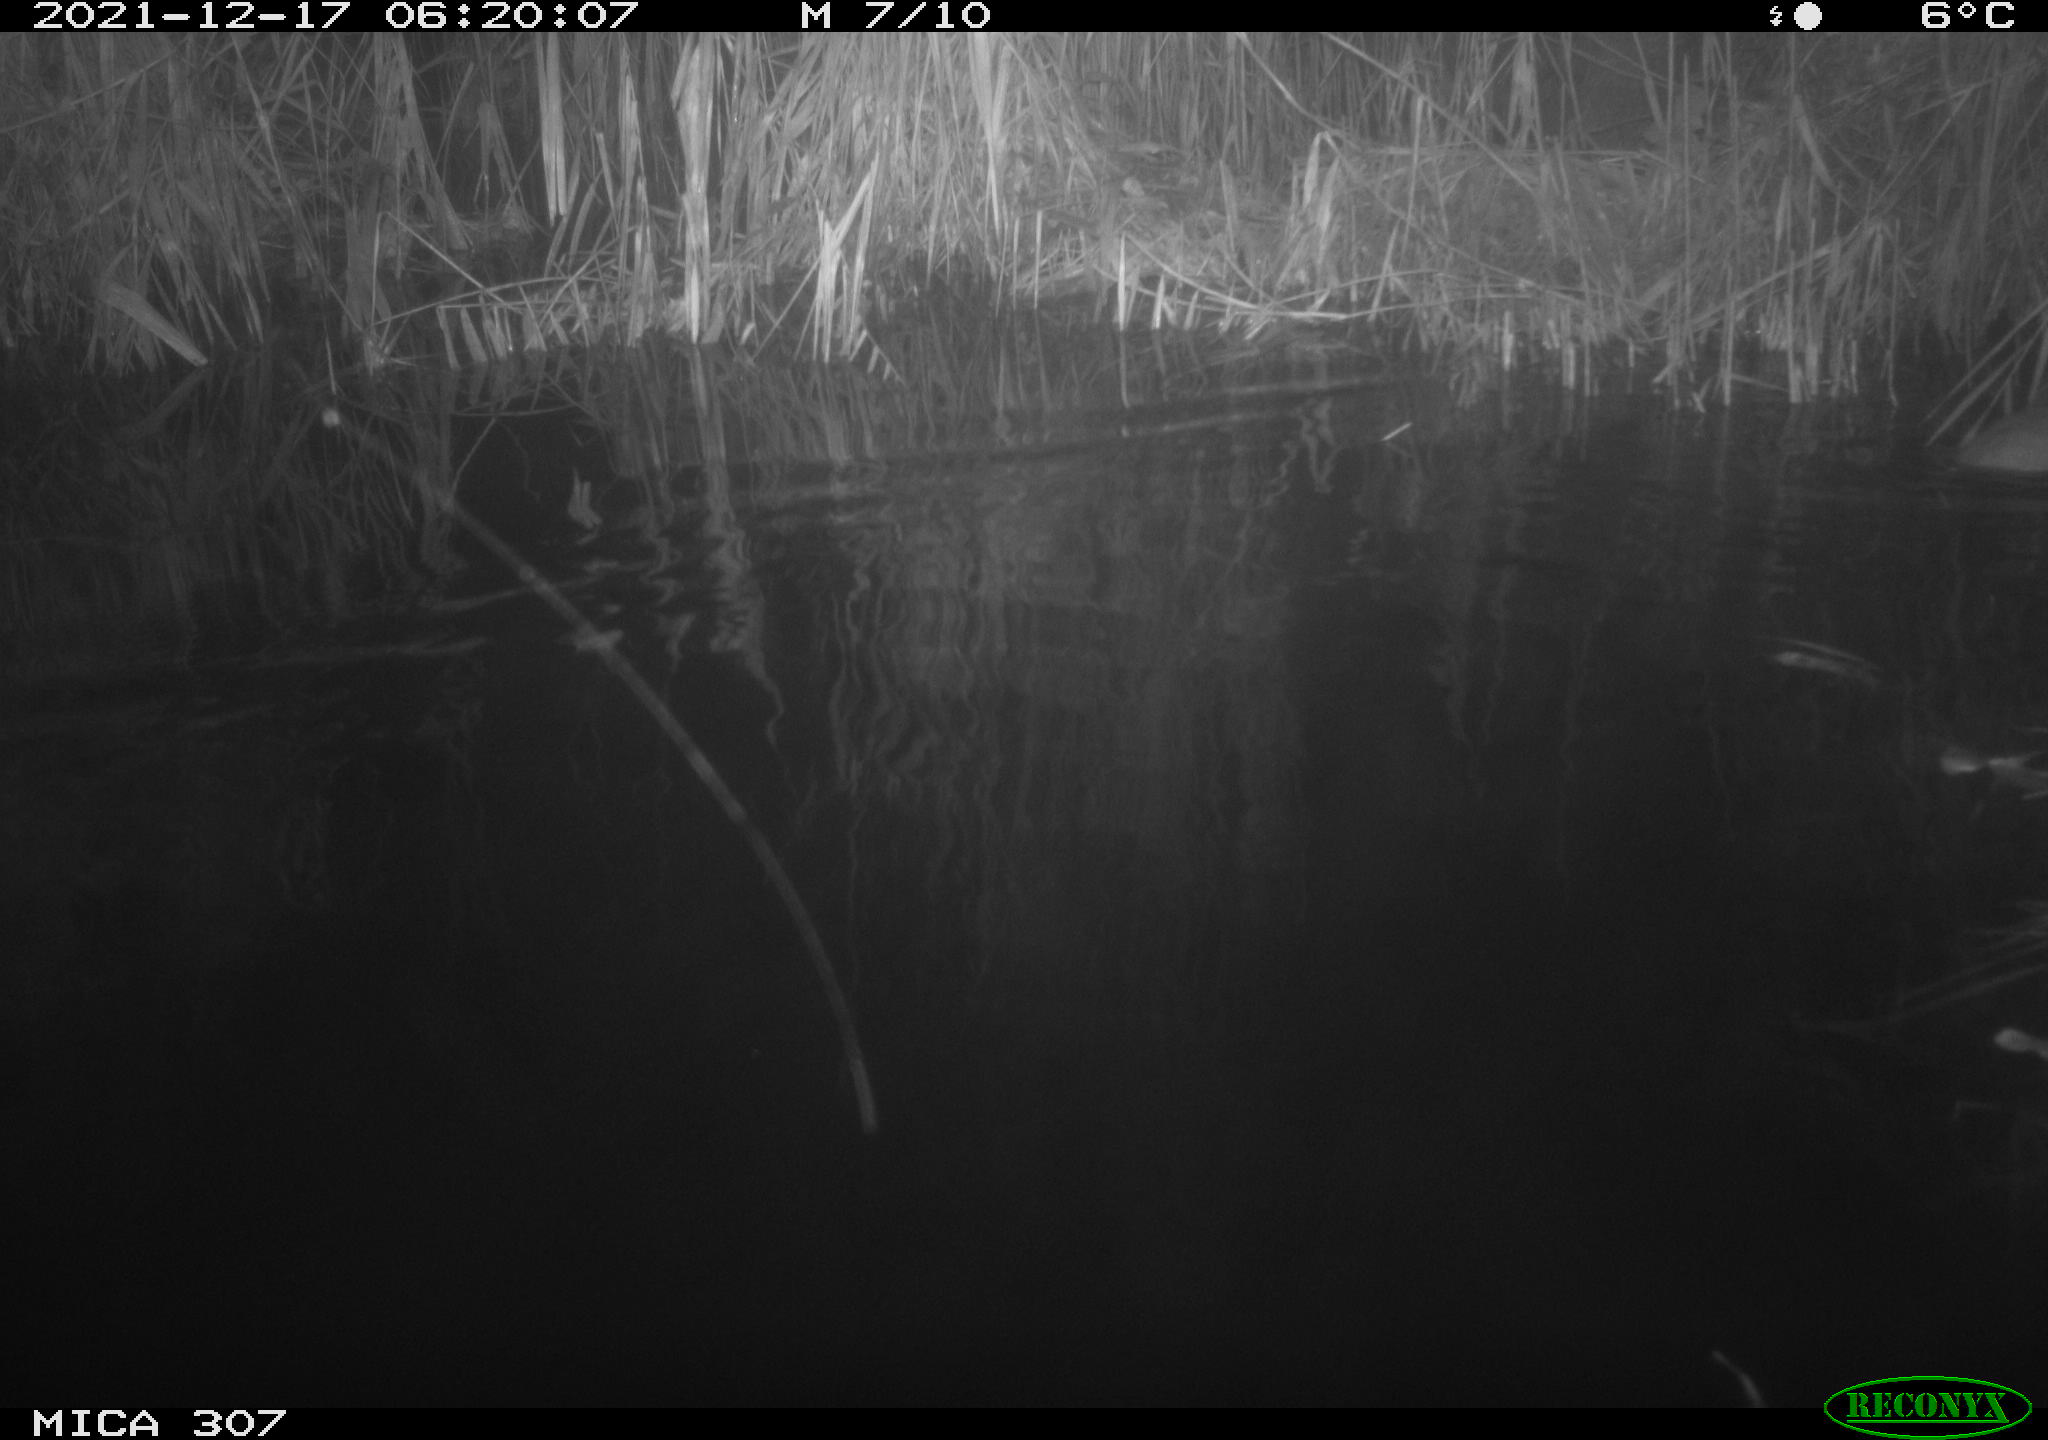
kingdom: Animalia
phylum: Chordata
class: Mammalia
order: Rodentia
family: Muridae
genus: Rattus
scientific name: Rattus norvegicus
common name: Brown rat
